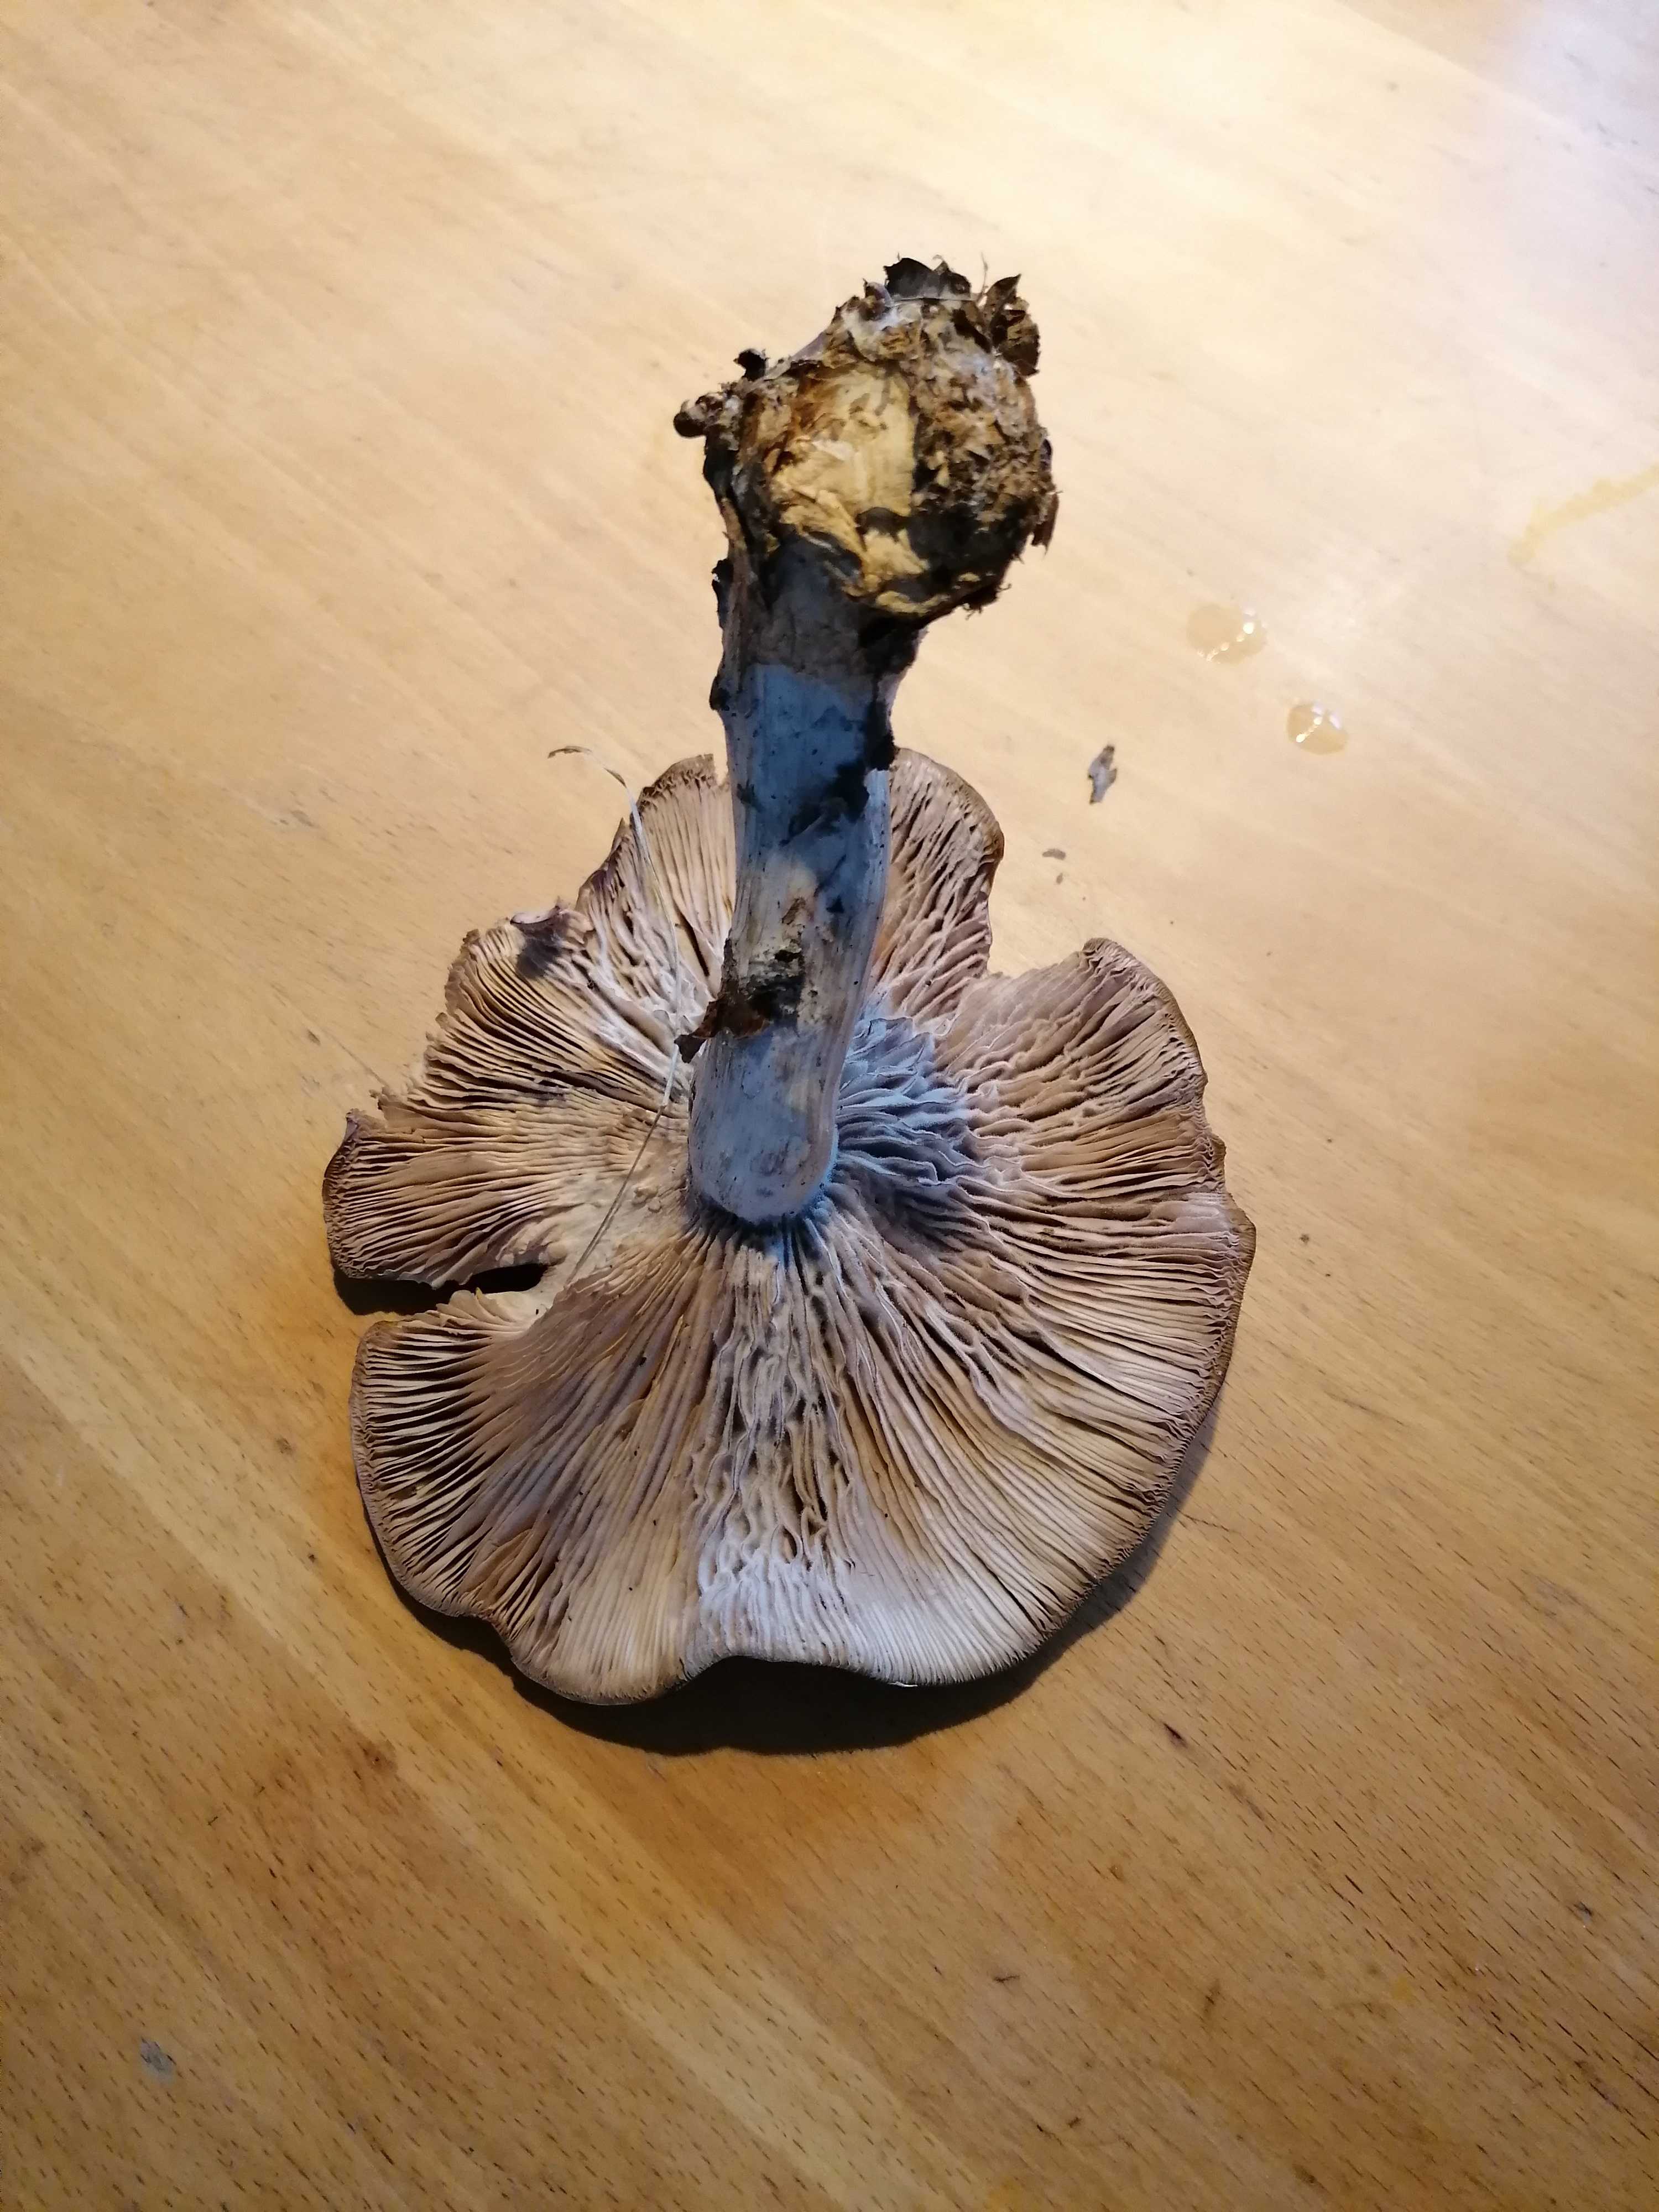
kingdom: Fungi
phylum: Basidiomycota
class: Agaricomycetes
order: Agaricales
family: Tricholomataceae
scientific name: Tricholomataceae
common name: ridderhatfamilien
